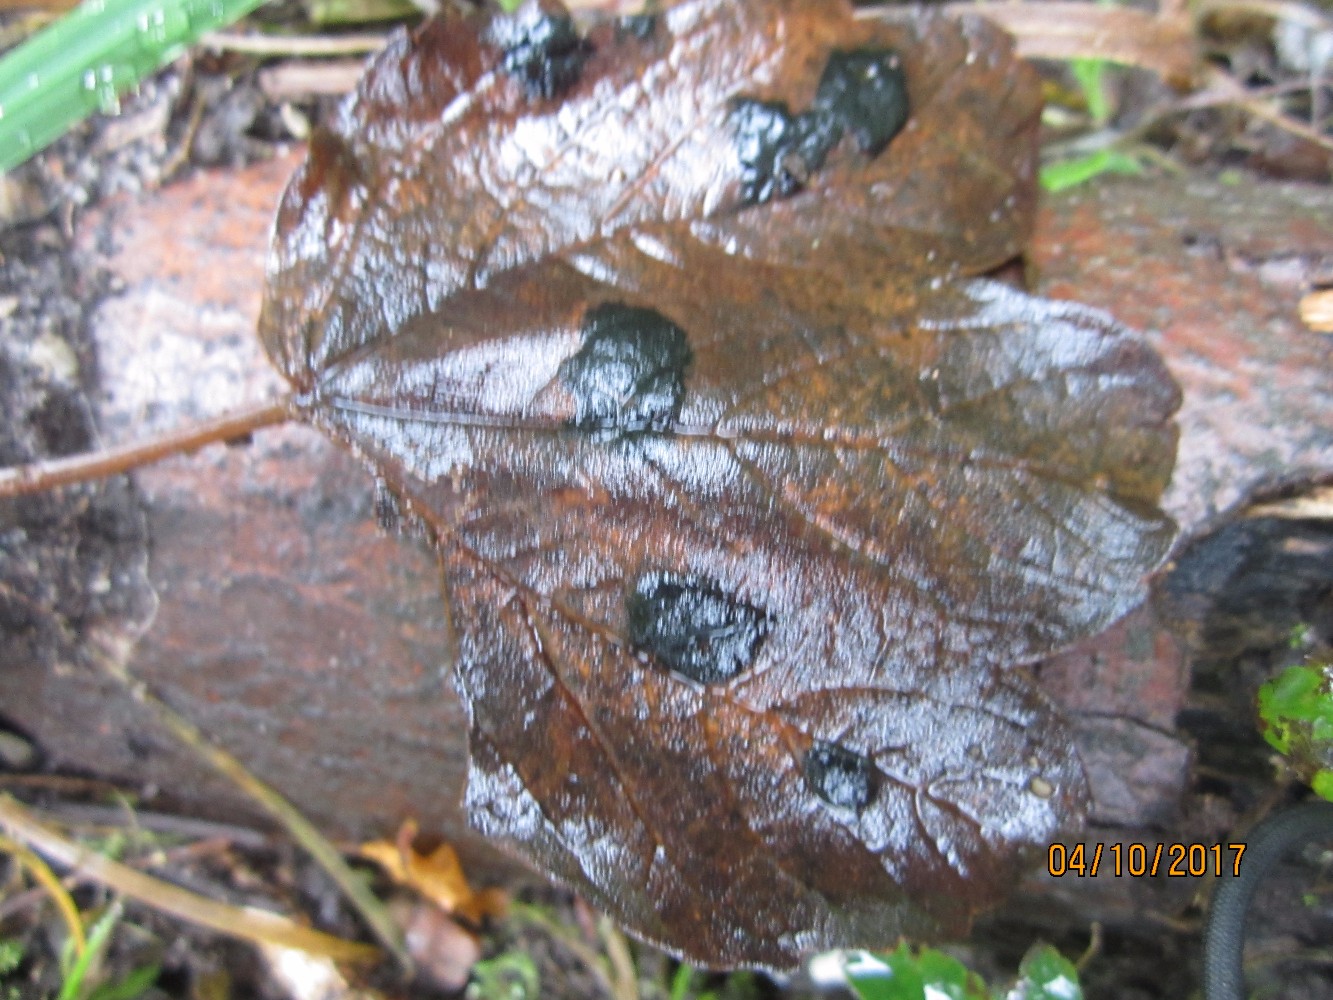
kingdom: Fungi
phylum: Ascomycota
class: Leotiomycetes
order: Rhytismatales
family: Rhytismataceae
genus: Rhytisma
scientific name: Rhytisma acerinum
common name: ahorn-rynkeplet
